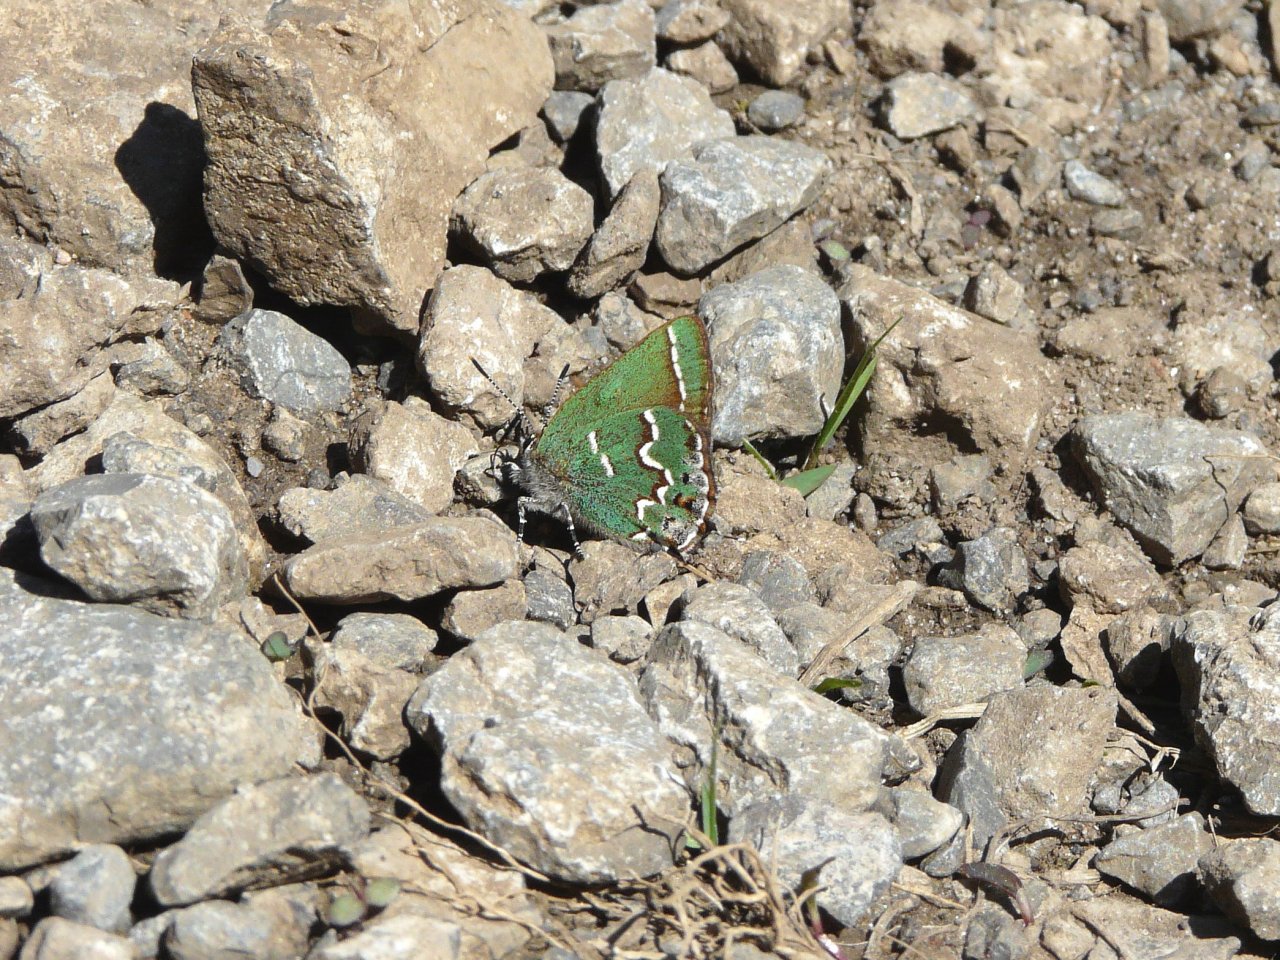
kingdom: Animalia
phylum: Arthropoda
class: Insecta
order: Lepidoptera
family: Lycaenidae
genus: Mitoura
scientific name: Mitoura gryneus
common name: Juniper Hairstreak
